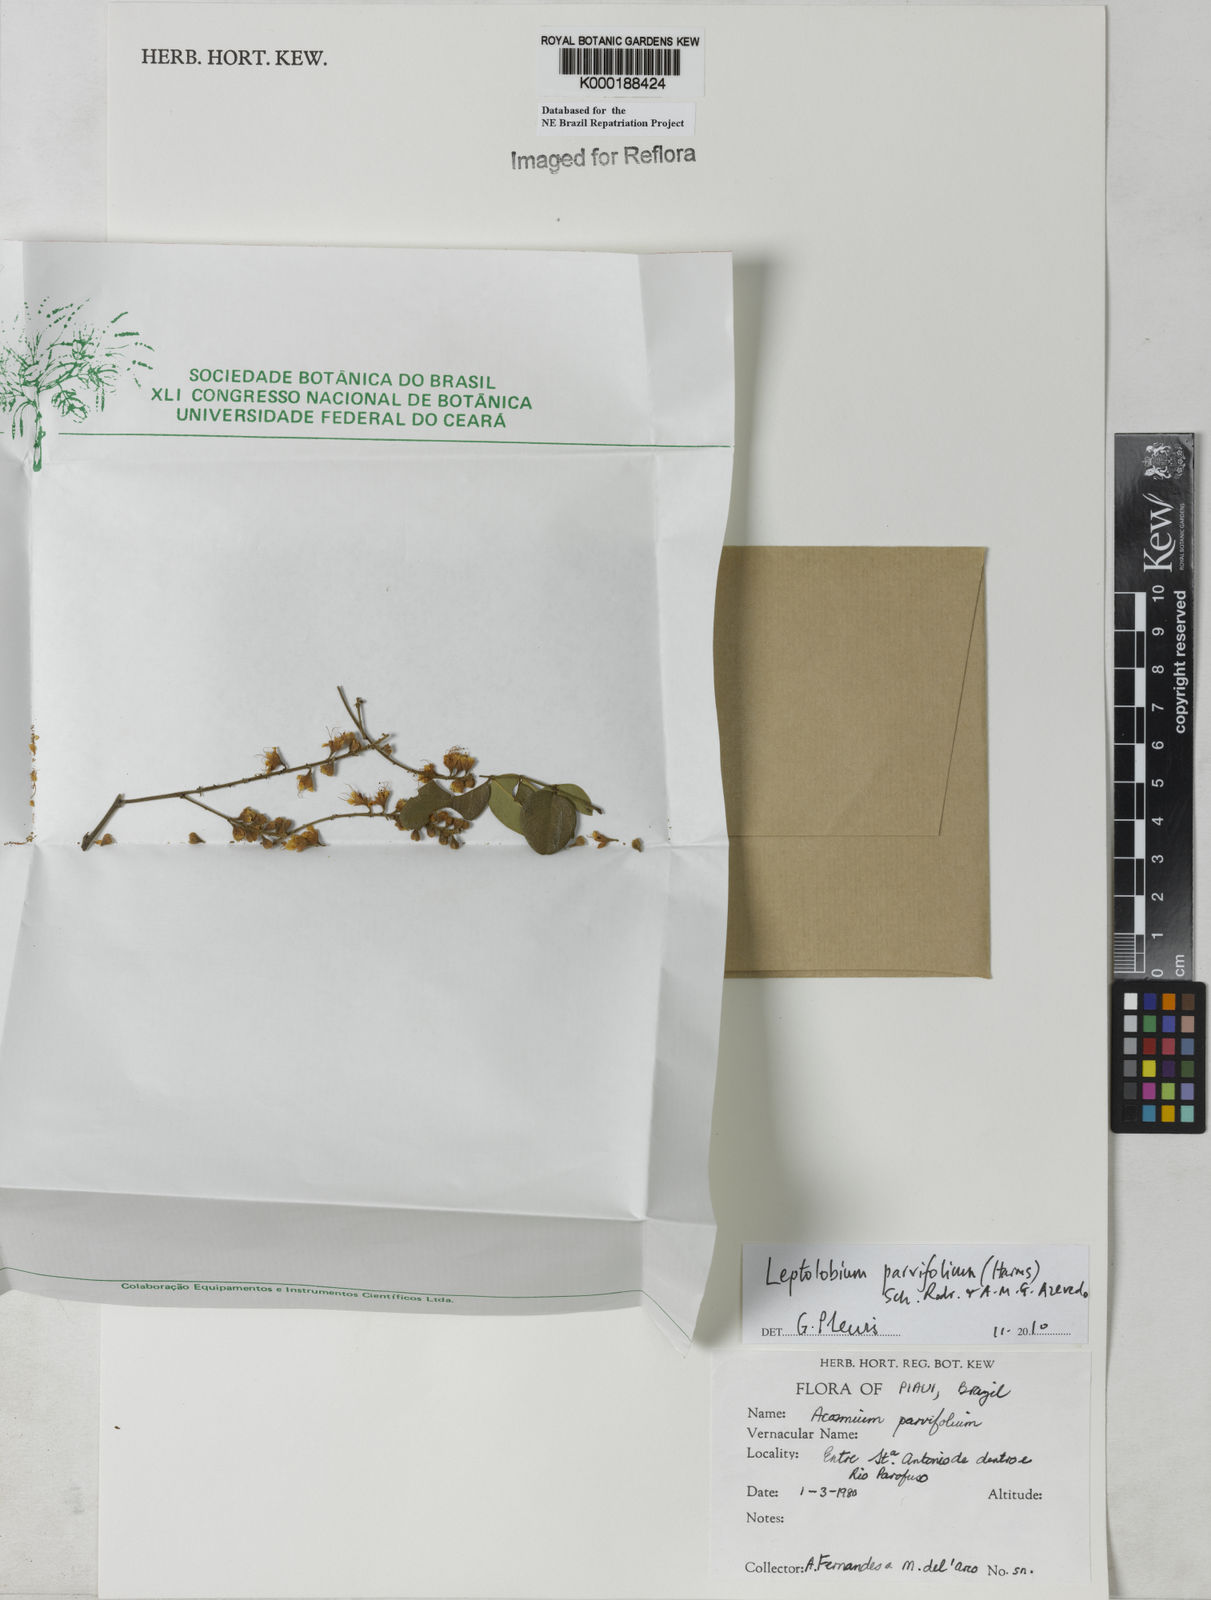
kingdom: Plantae
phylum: Tracheophyta
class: Magnoliopsida
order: Fabales
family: Fabaceae
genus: Leptolobium
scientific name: Leptolobium parvifolium
